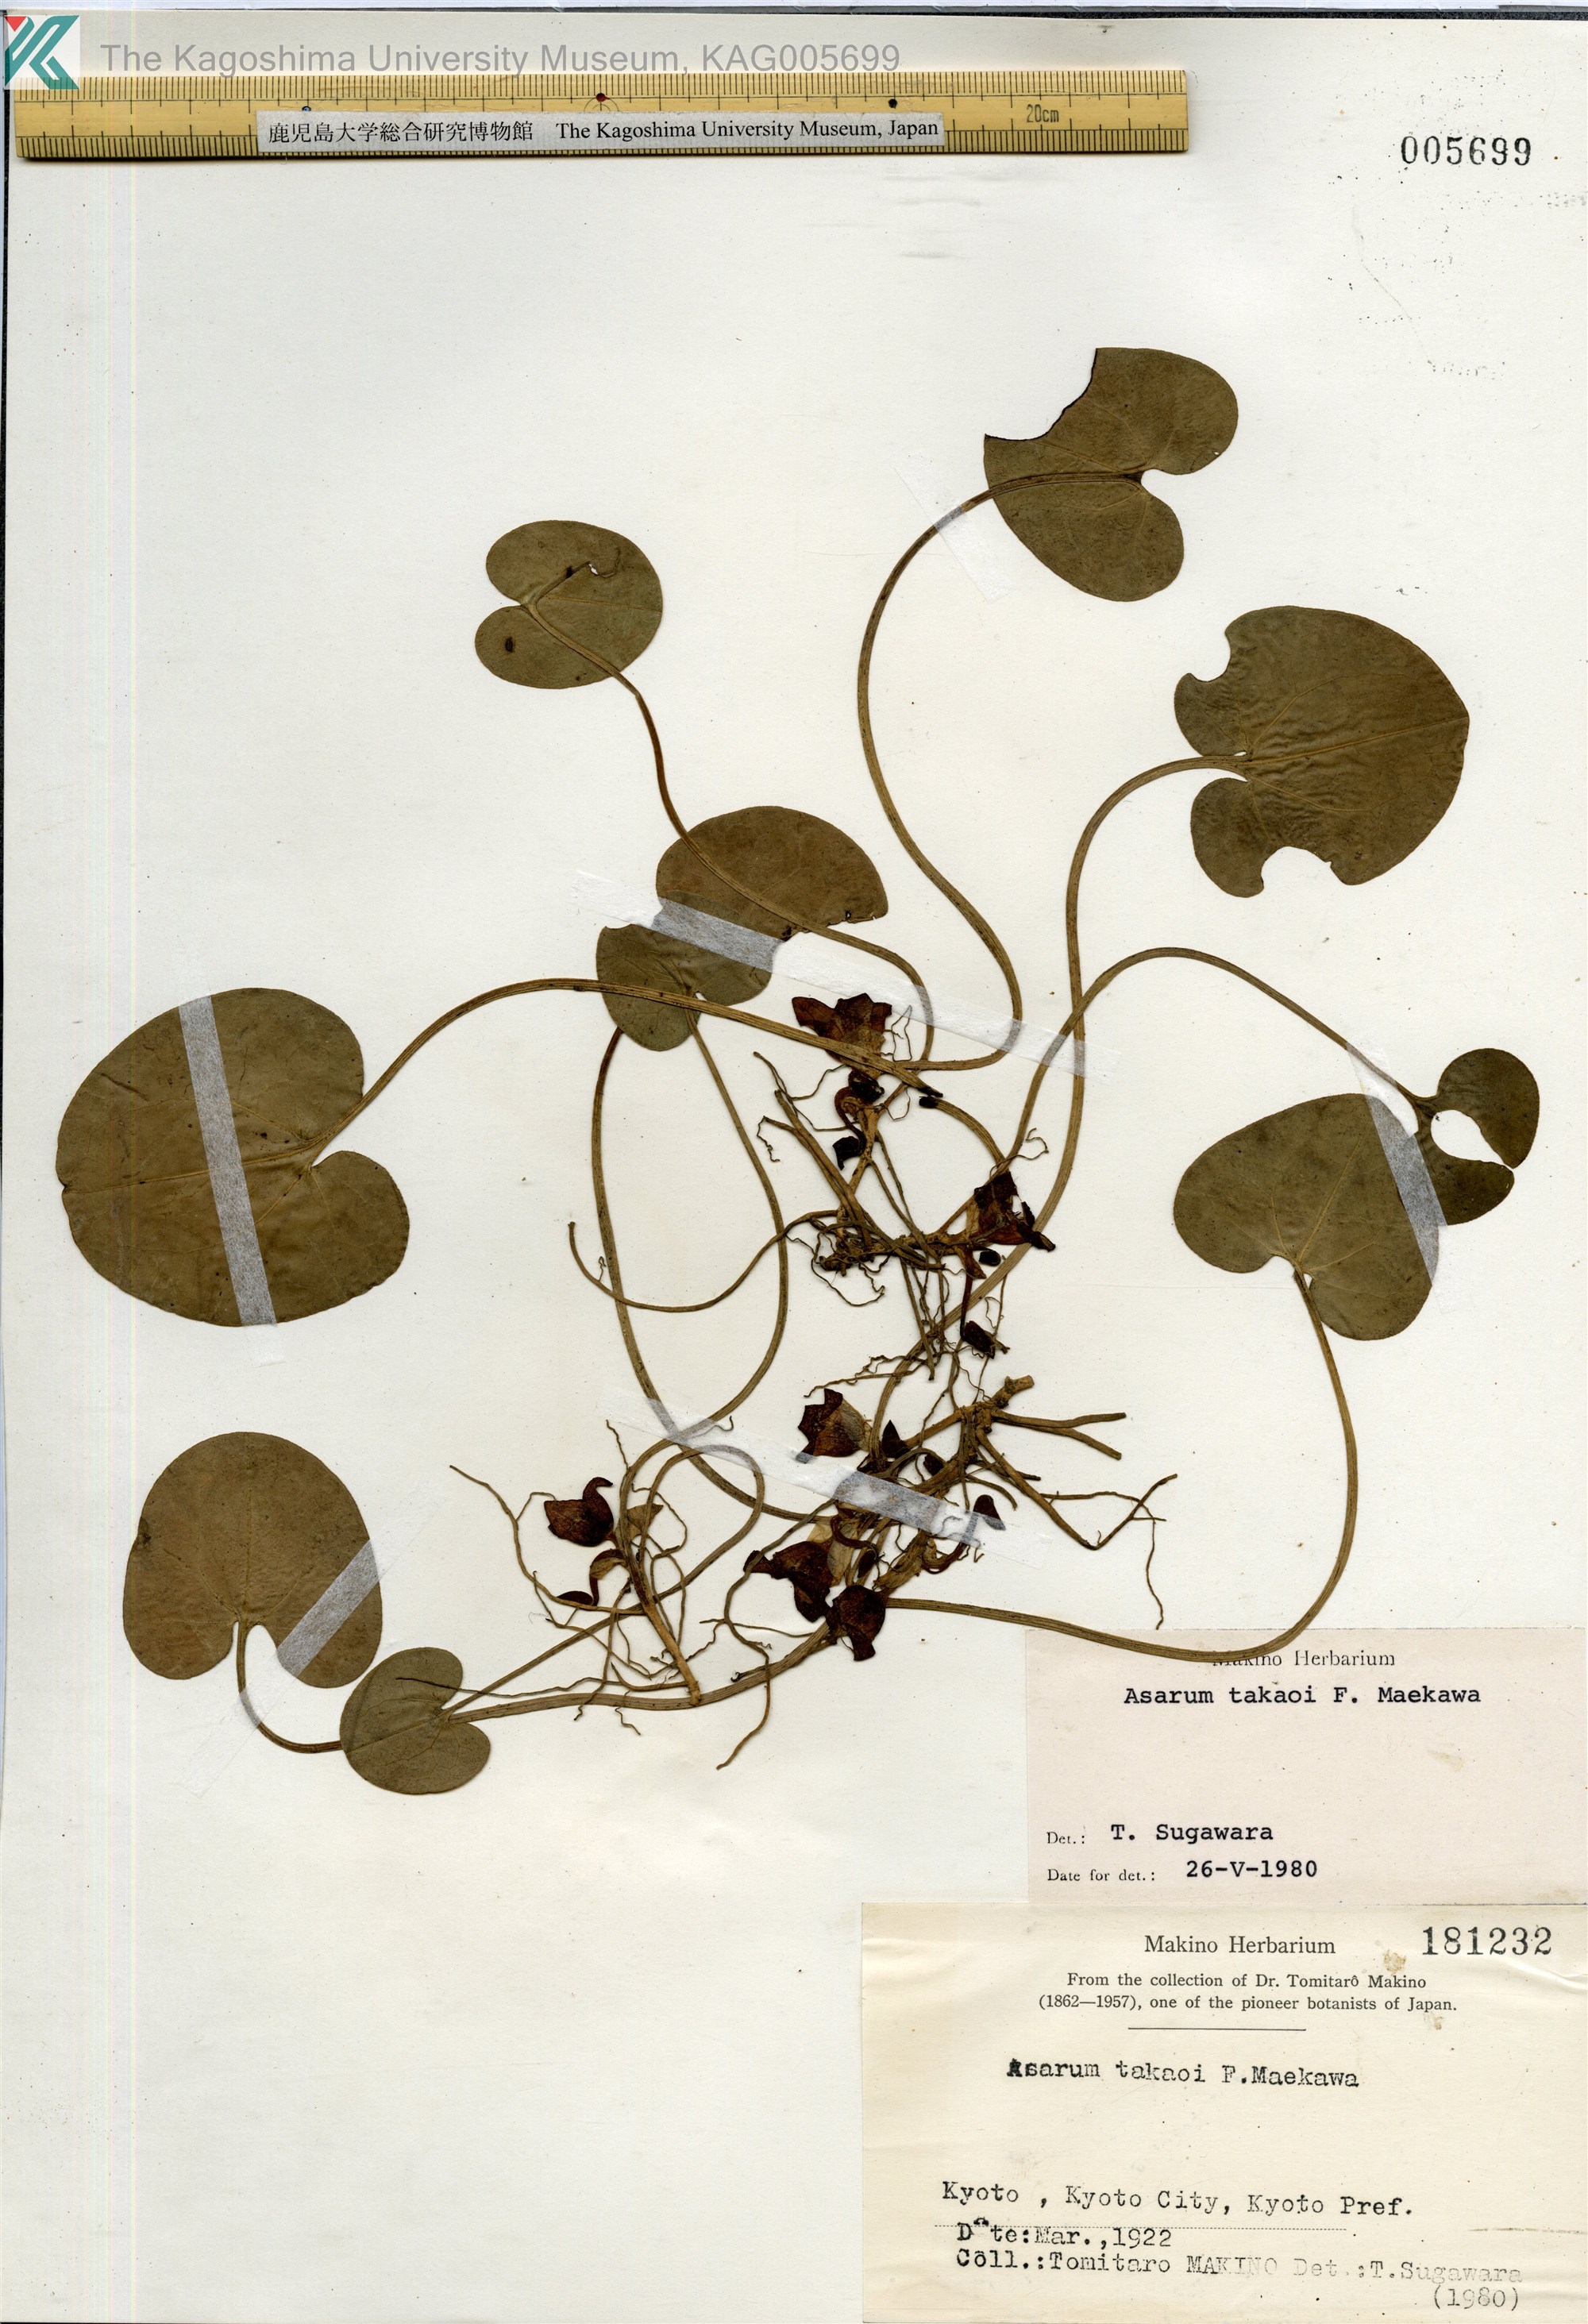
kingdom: Plantae
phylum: Tracheophyta
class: Magnoliopsida
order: Piperales
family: Aristolochiaceae
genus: Asarum
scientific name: Asarum fauriei
